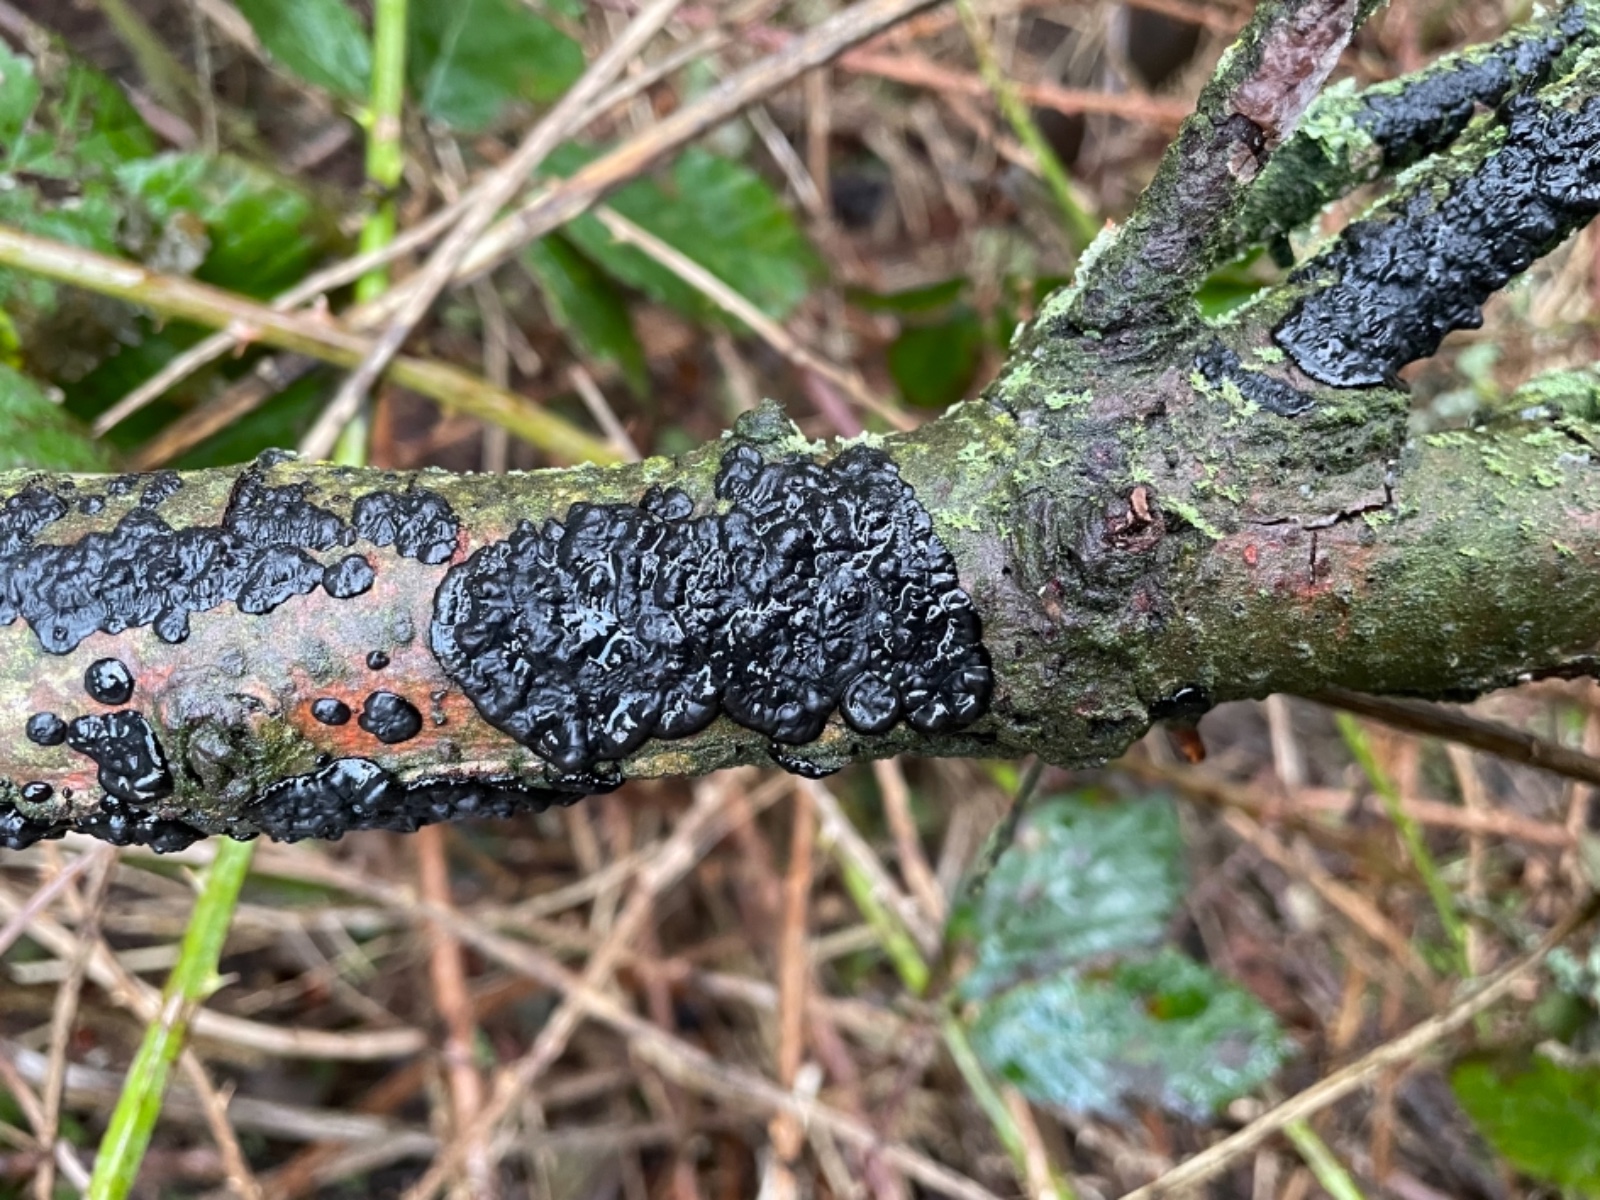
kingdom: Fungi
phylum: Basidiomycota
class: Agaricomycetes
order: Auriculariales
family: Auriculariaceae
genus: Exidia
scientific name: Exidia pithya
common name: gran-bævretop
